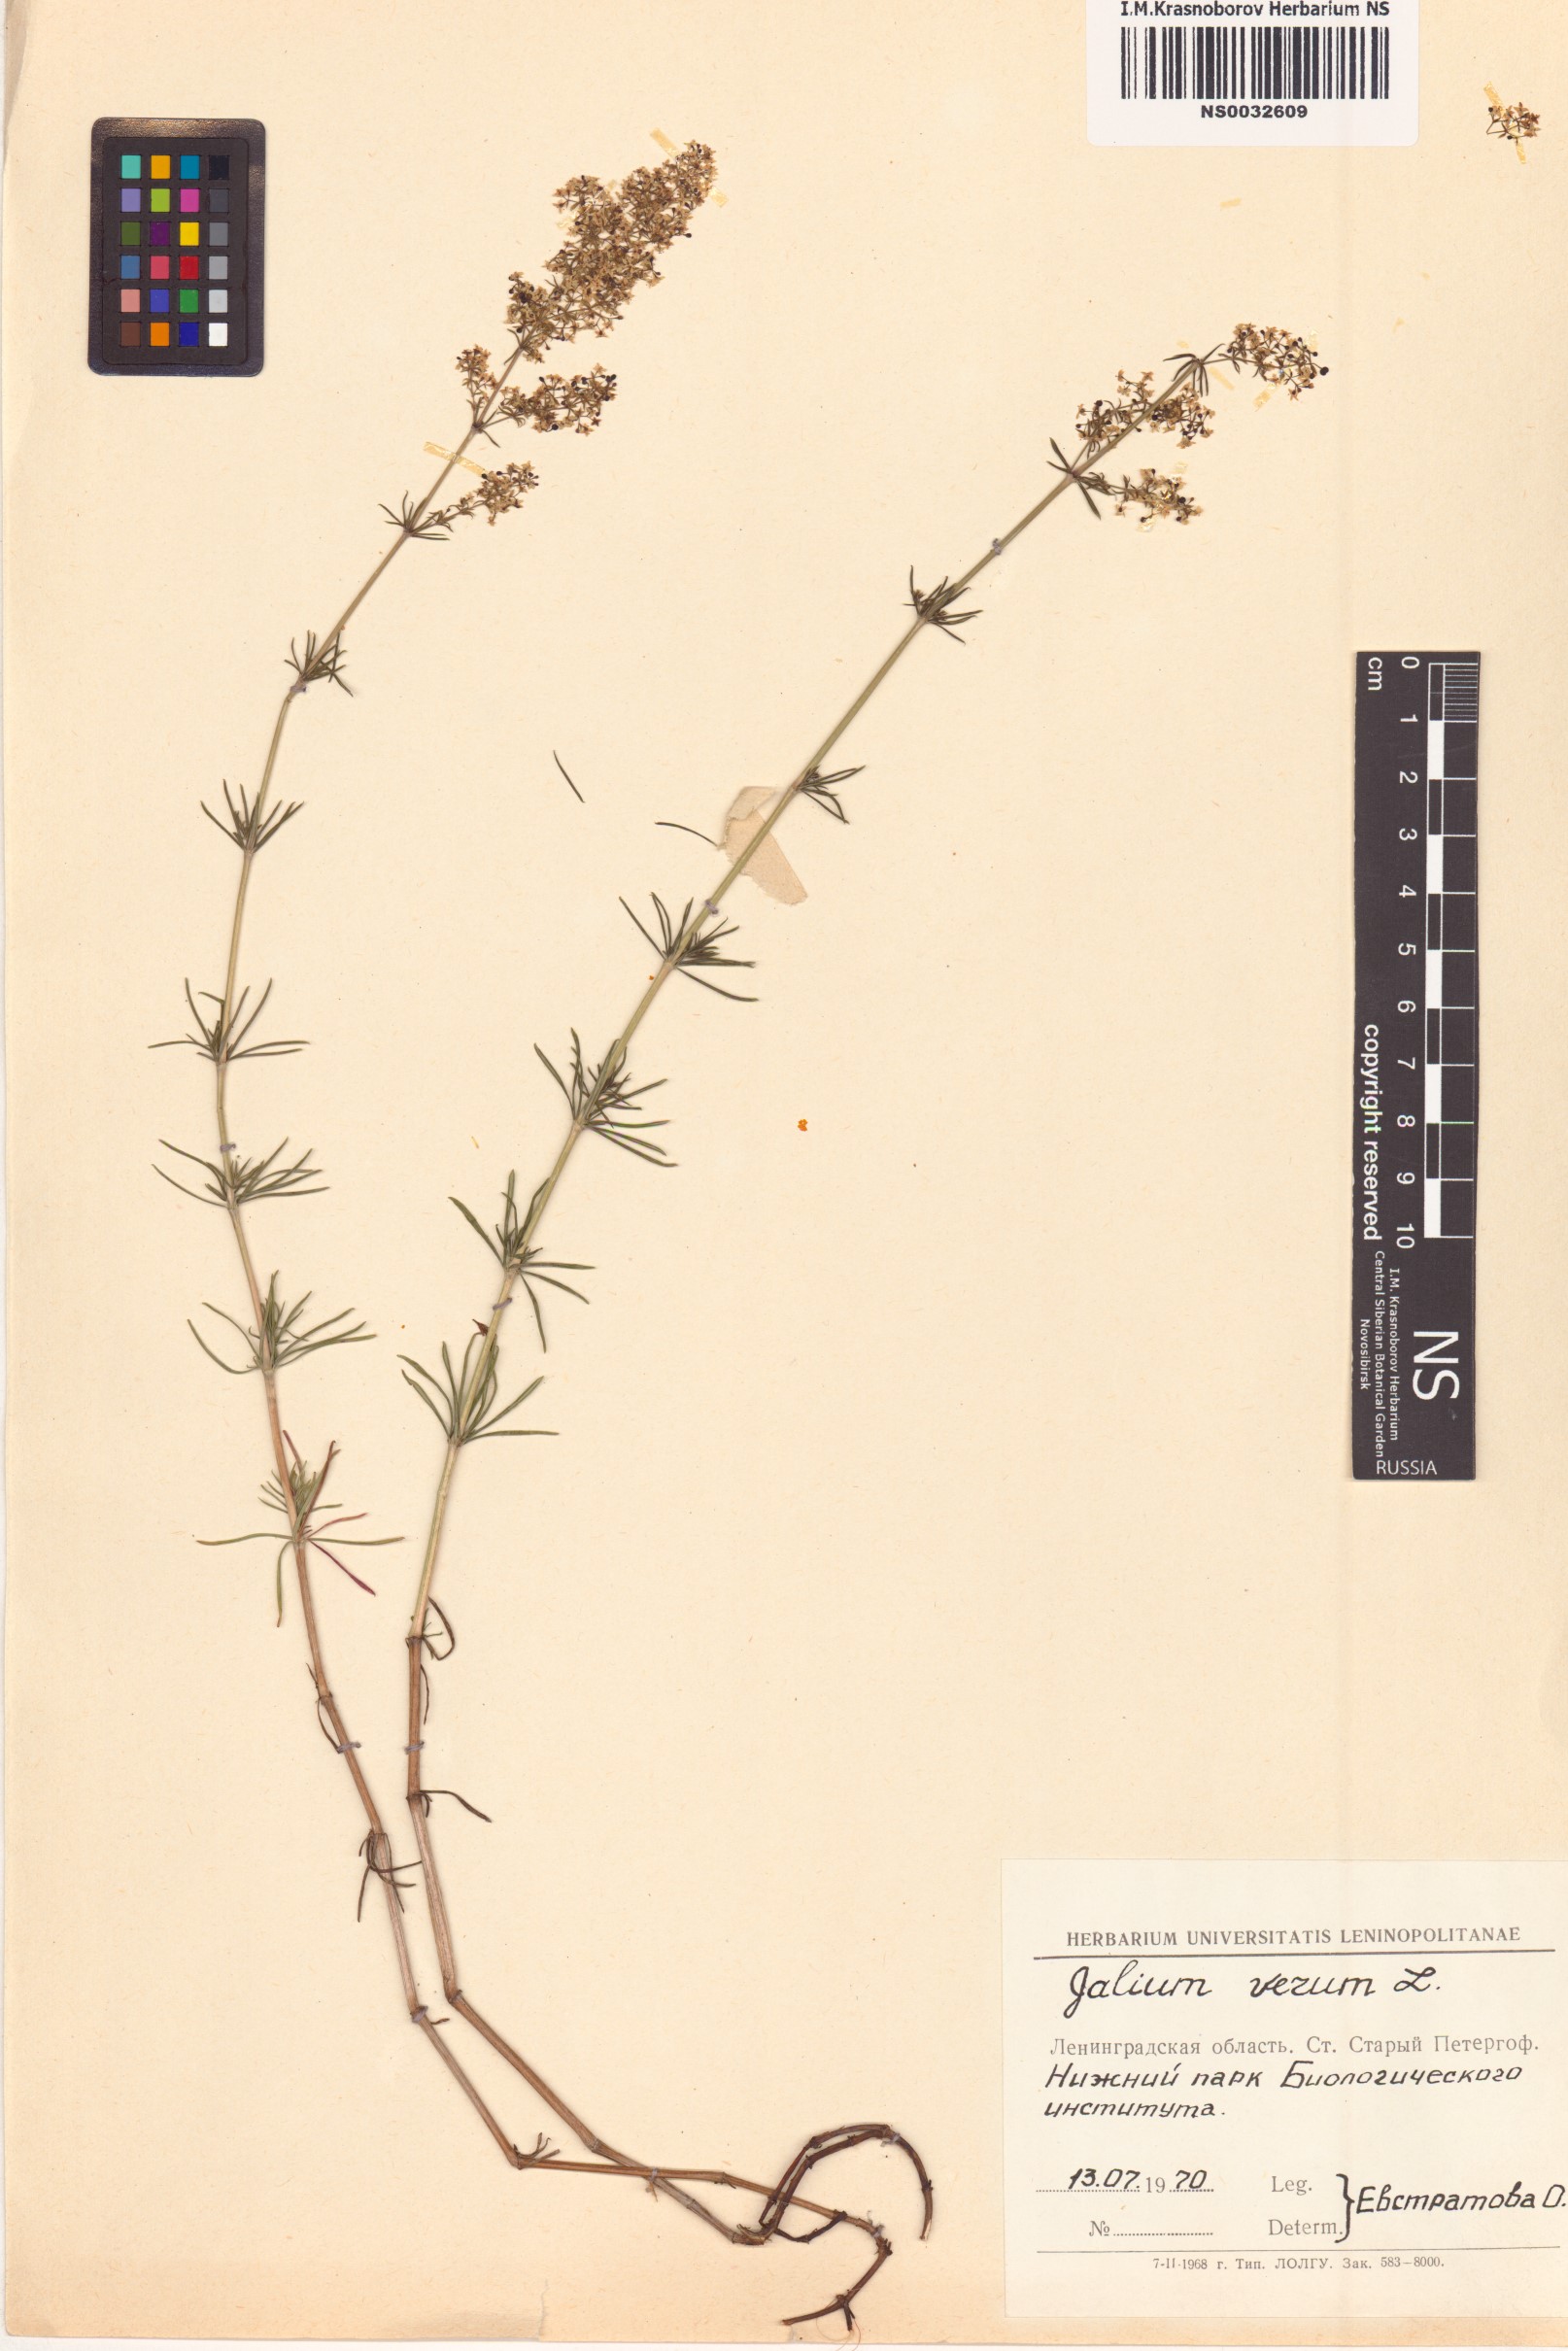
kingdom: Plantae
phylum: Tracheophyta
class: Magnoliopsida
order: Gentianales
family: Rubiaceae
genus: Galium
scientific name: Galium verum
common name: Lady's bedstraw
